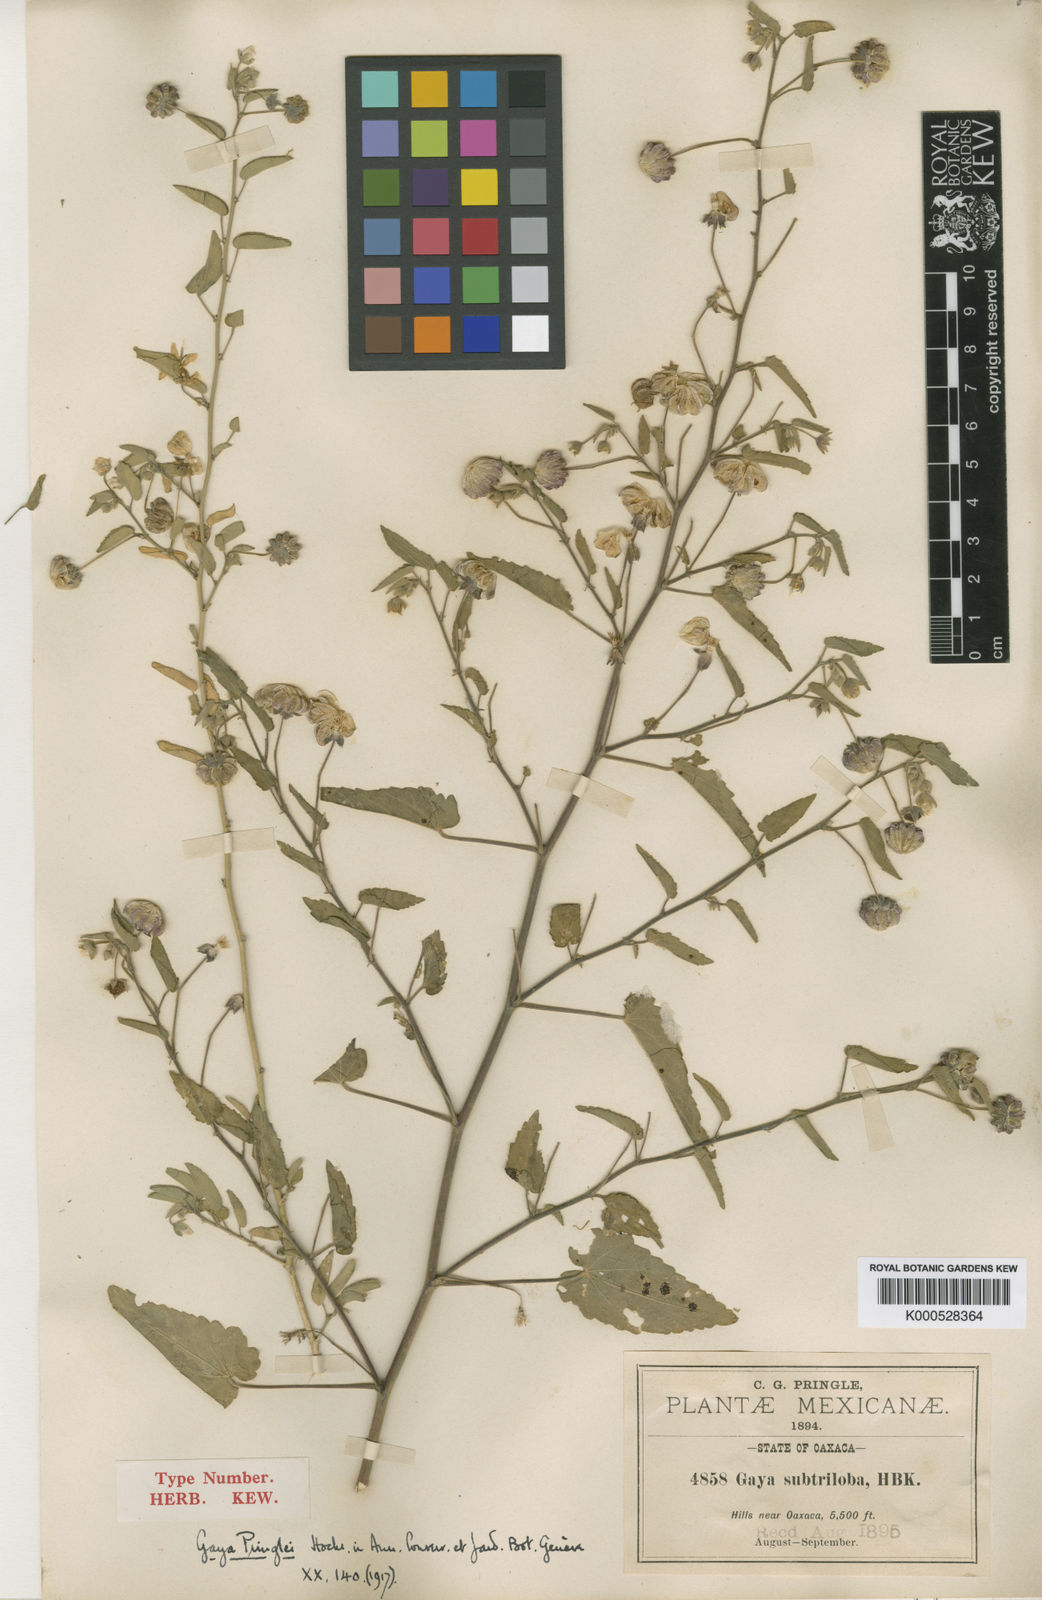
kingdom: Plantae
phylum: Tracheophyta
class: Magnoliopsida
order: Malvales
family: Malvaceae
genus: Gaya
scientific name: Gaya minutiflora
